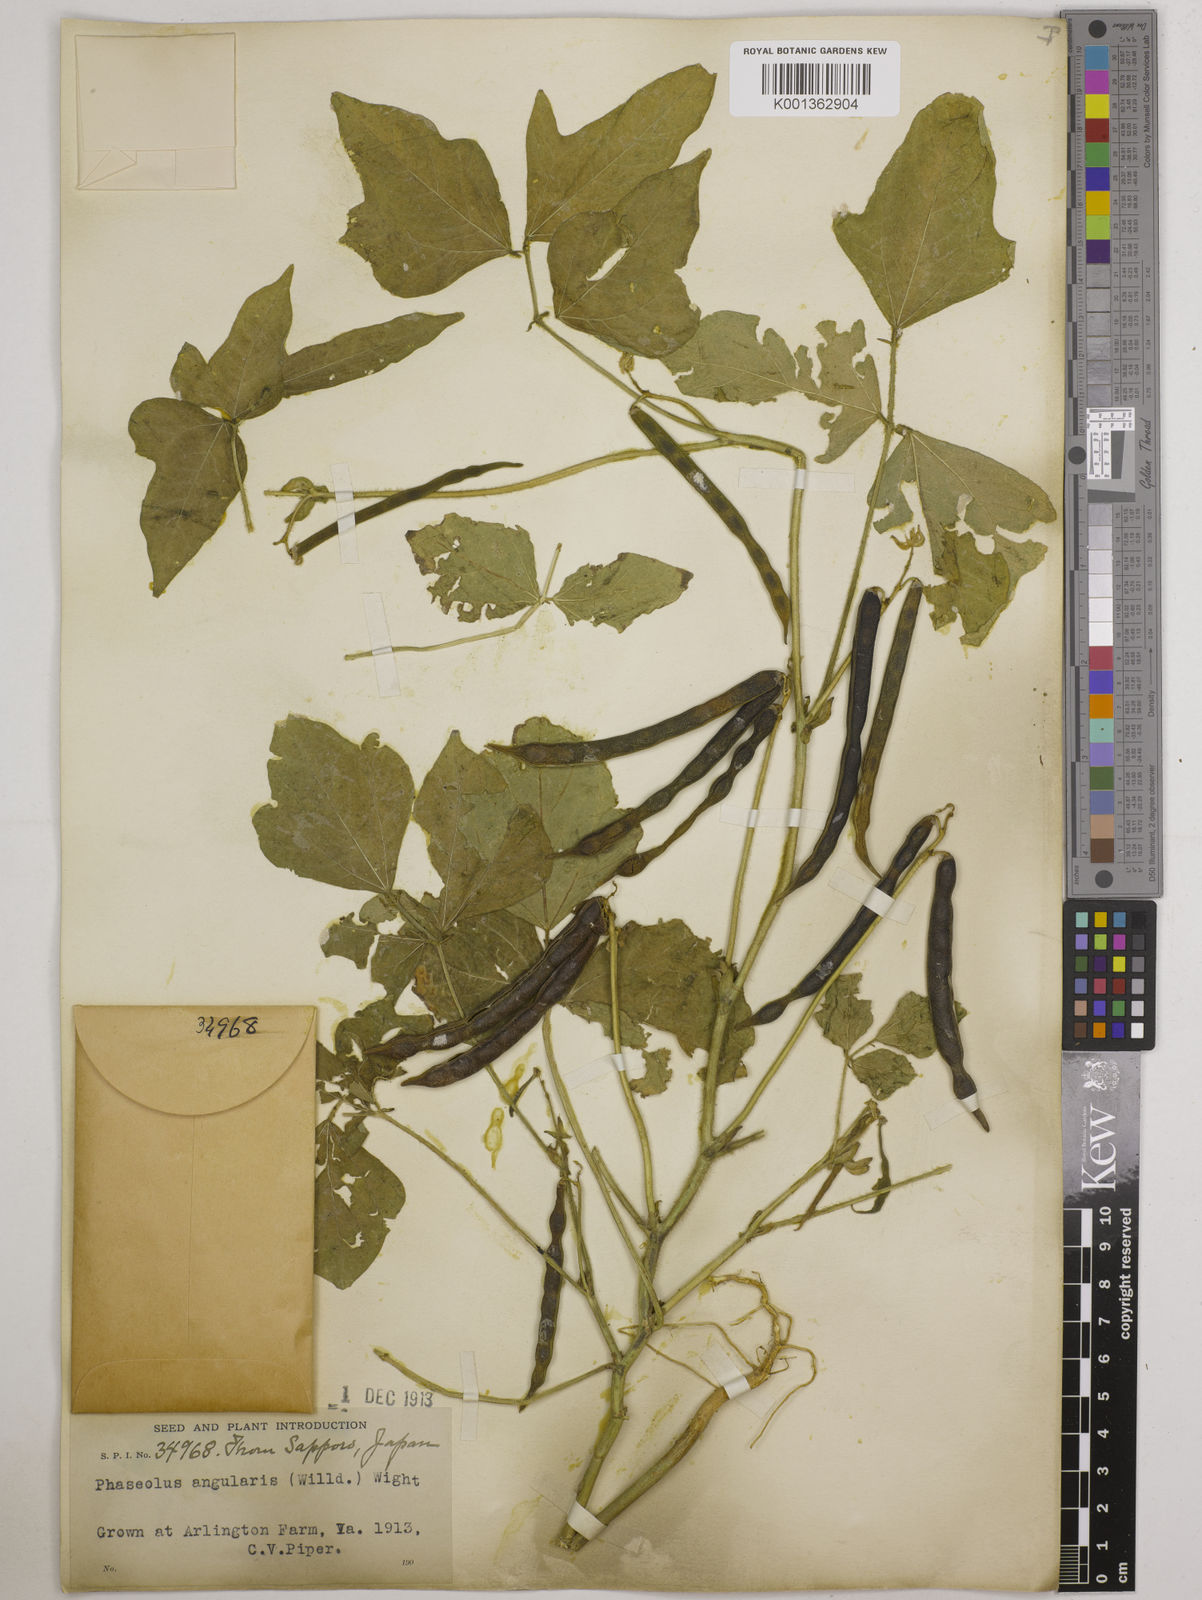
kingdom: Plantae
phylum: Tracheophyta
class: Magnoliopsida
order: Fabales
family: Fabaceae
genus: Vigna
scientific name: Vigna angularis
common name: Adzuki bean
